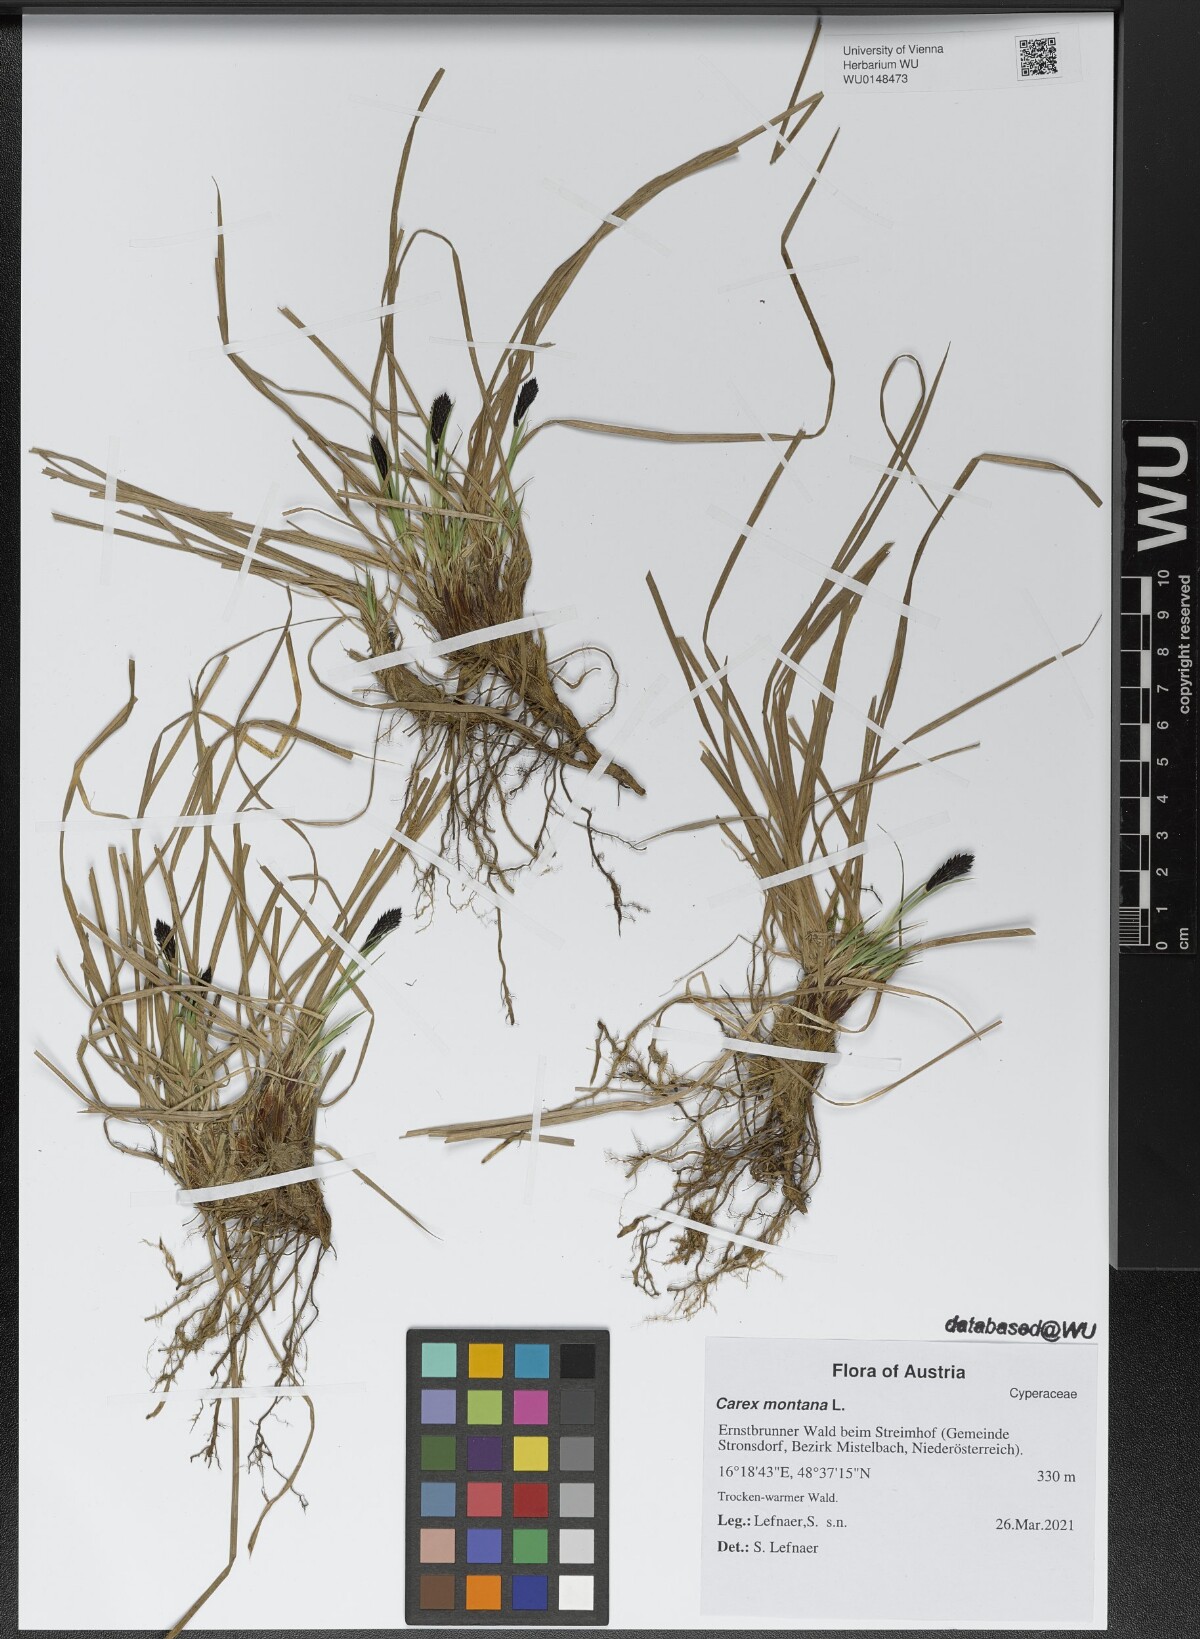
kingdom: Plantae
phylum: Tracheophyta
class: Liliopsida
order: Poales
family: Cyperaceae
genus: Carex
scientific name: Carex montana
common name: Soft-leaved sedge
